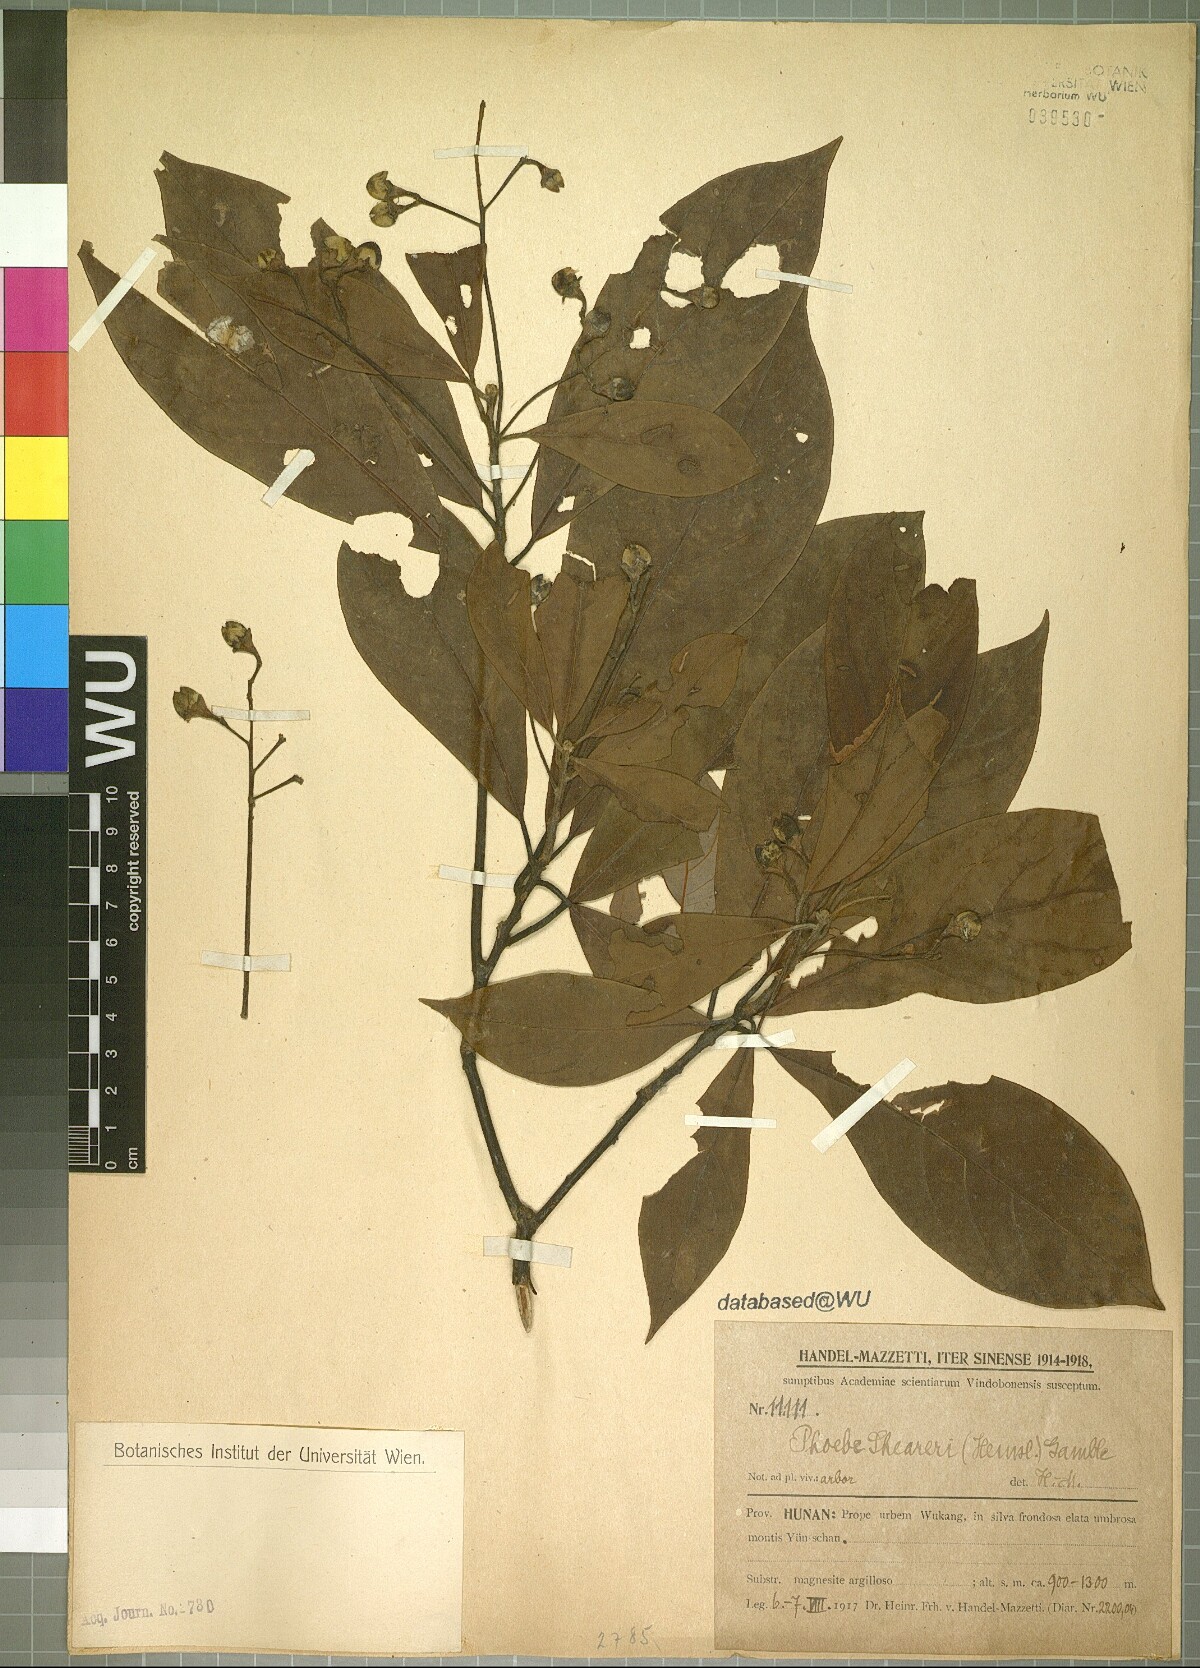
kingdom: Plantae
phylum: Tracheophyta
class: Magnoliopsida
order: Laurales
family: Lauraceae
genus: Phoebe
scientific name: Phoebe sheareri
